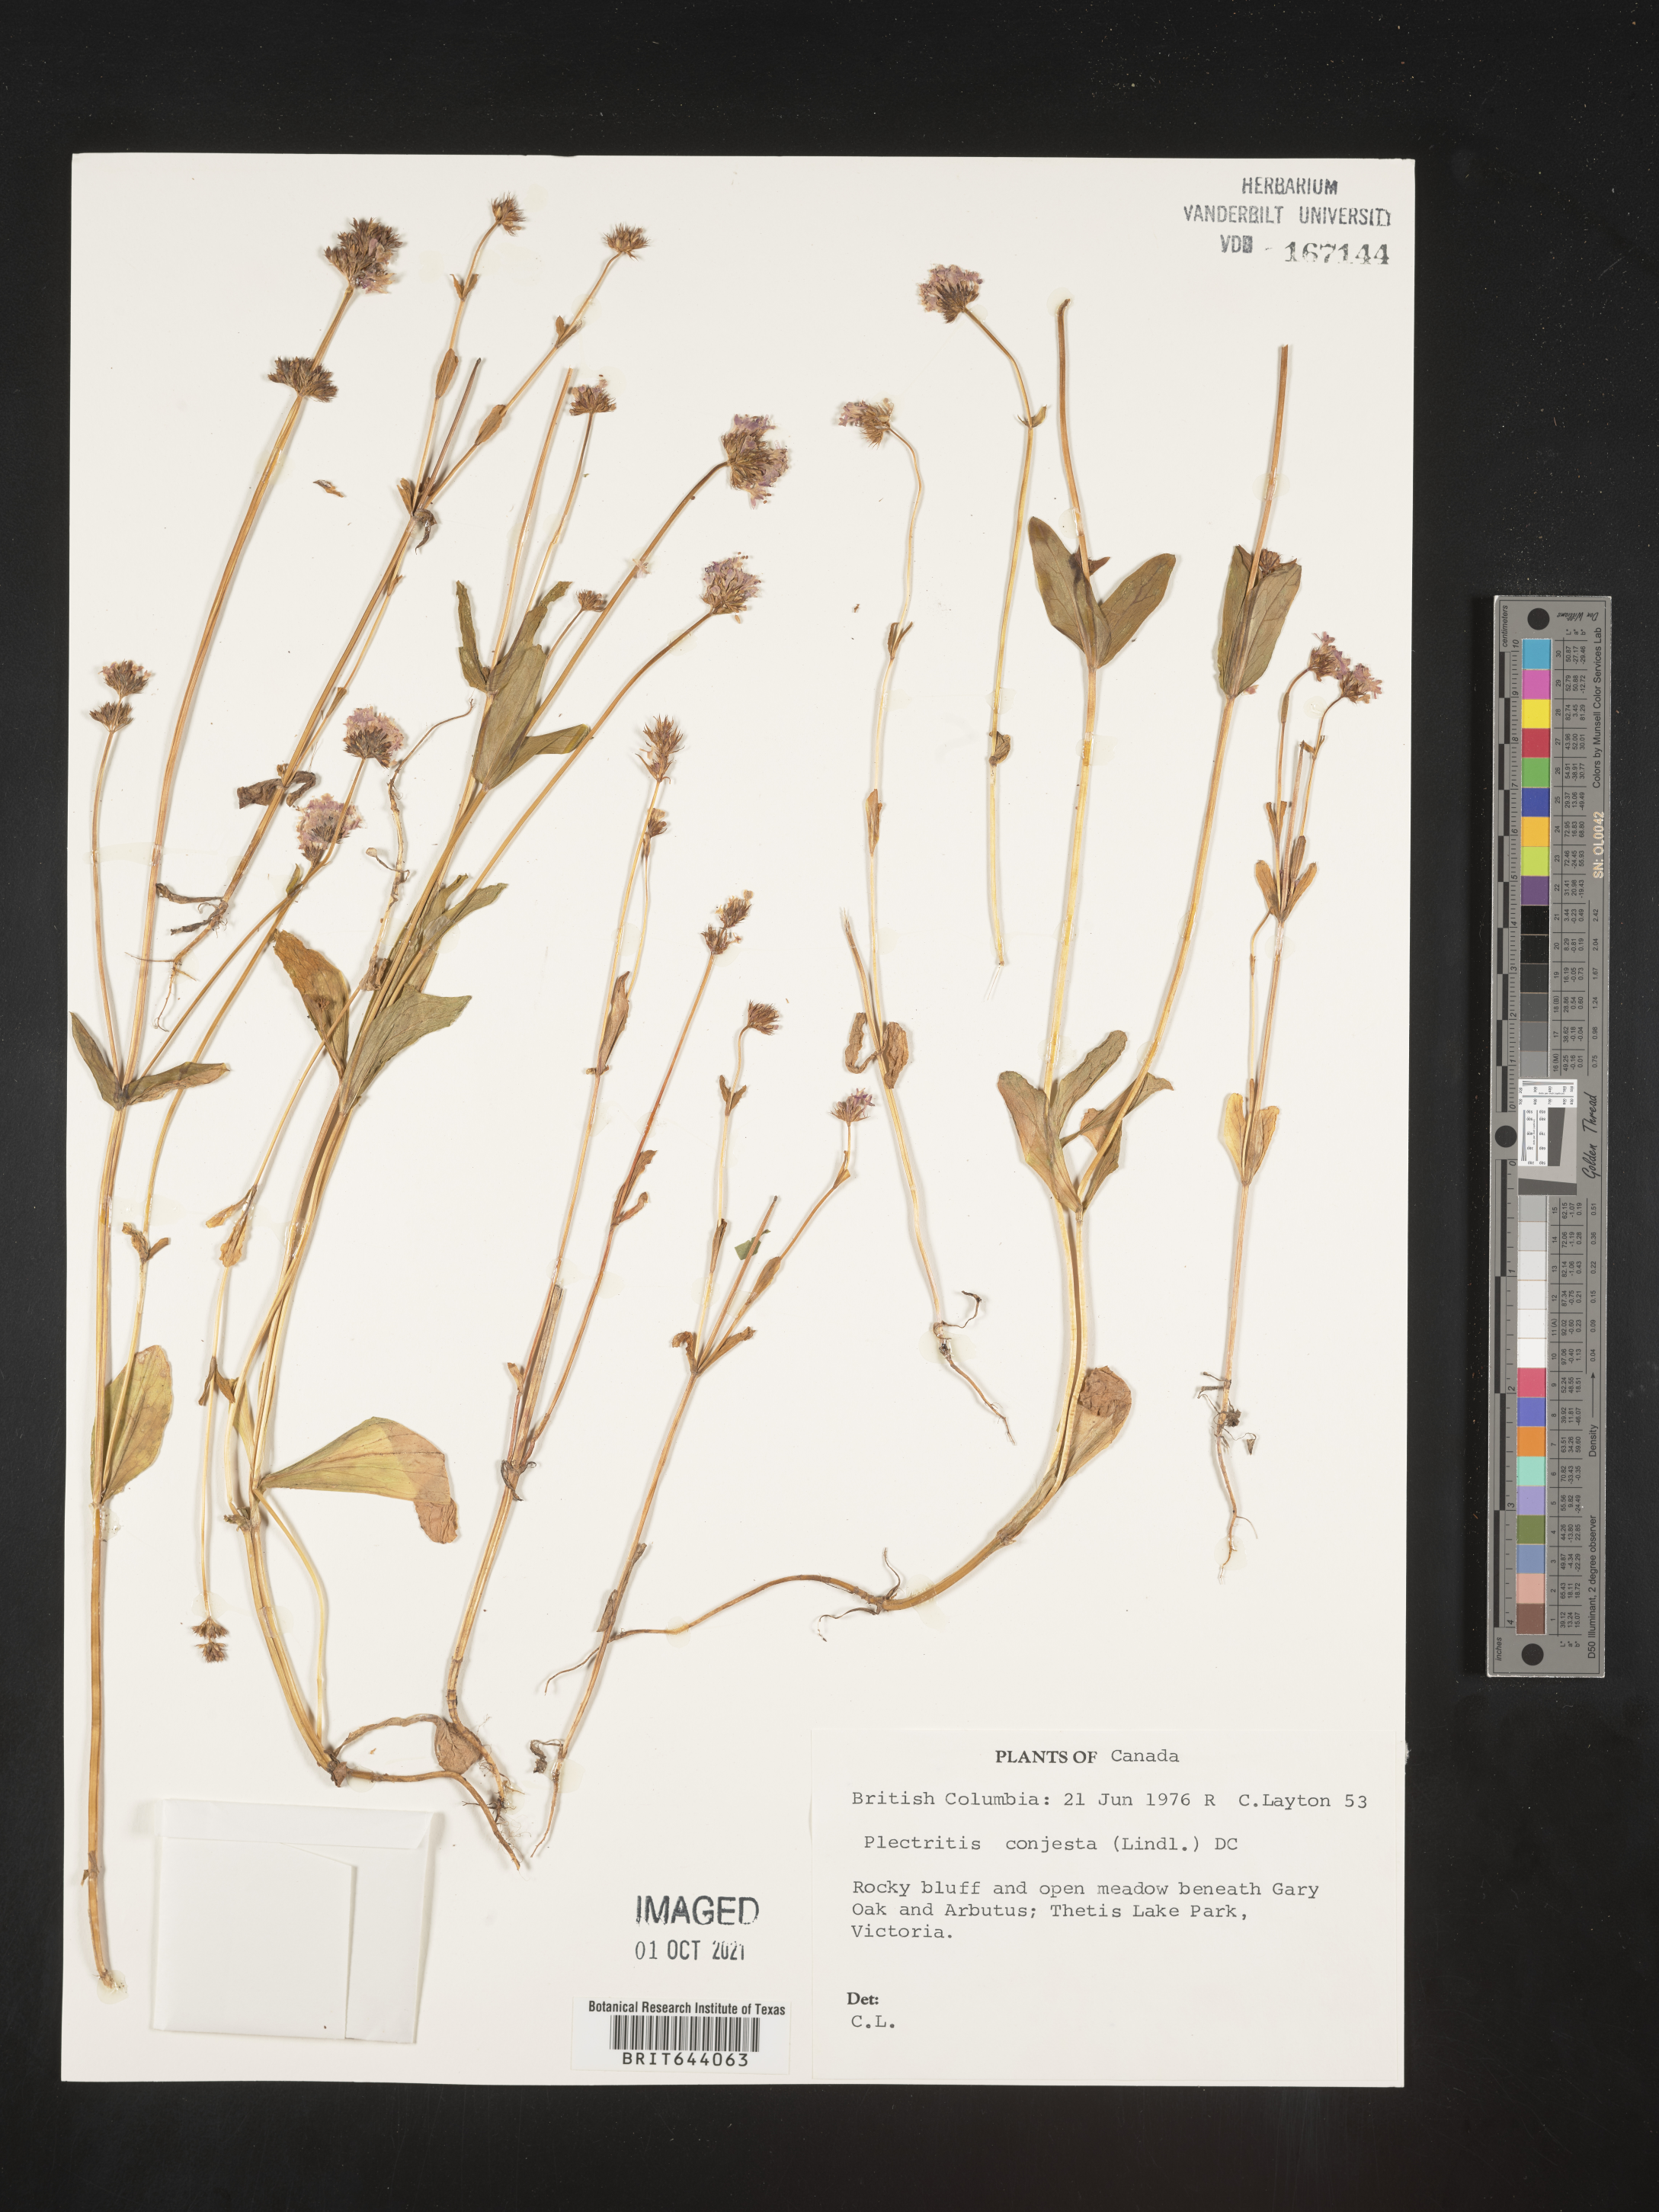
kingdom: Plantae
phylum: Tracheophyta
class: Magnoliopsida
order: Dipsacales
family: Caprifoliaceae
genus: Plectritis
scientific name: Plectritis congesta
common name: Pink plectritis
